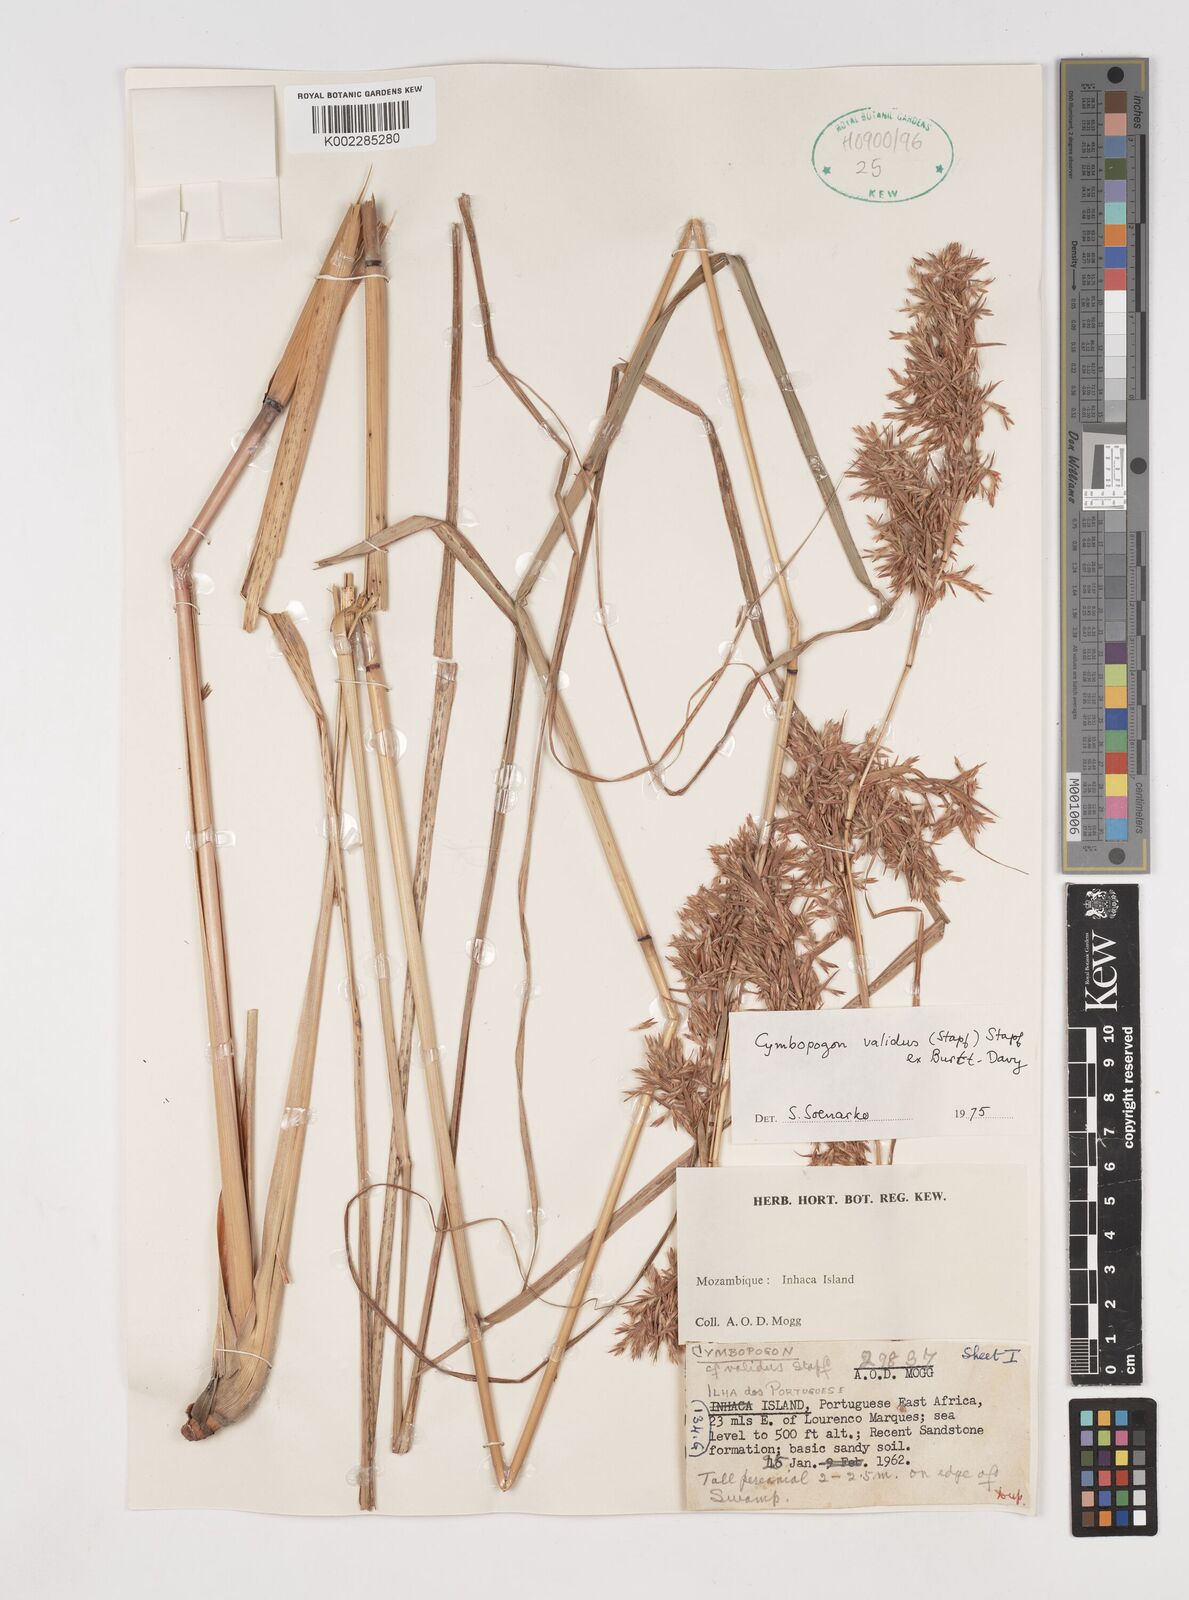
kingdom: Plantae
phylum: Tracheophyta
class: Liliopsida
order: Poales
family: Poaceae
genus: Cymbopogon
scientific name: Cymbopogon nardus
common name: Giant turpentine grass
